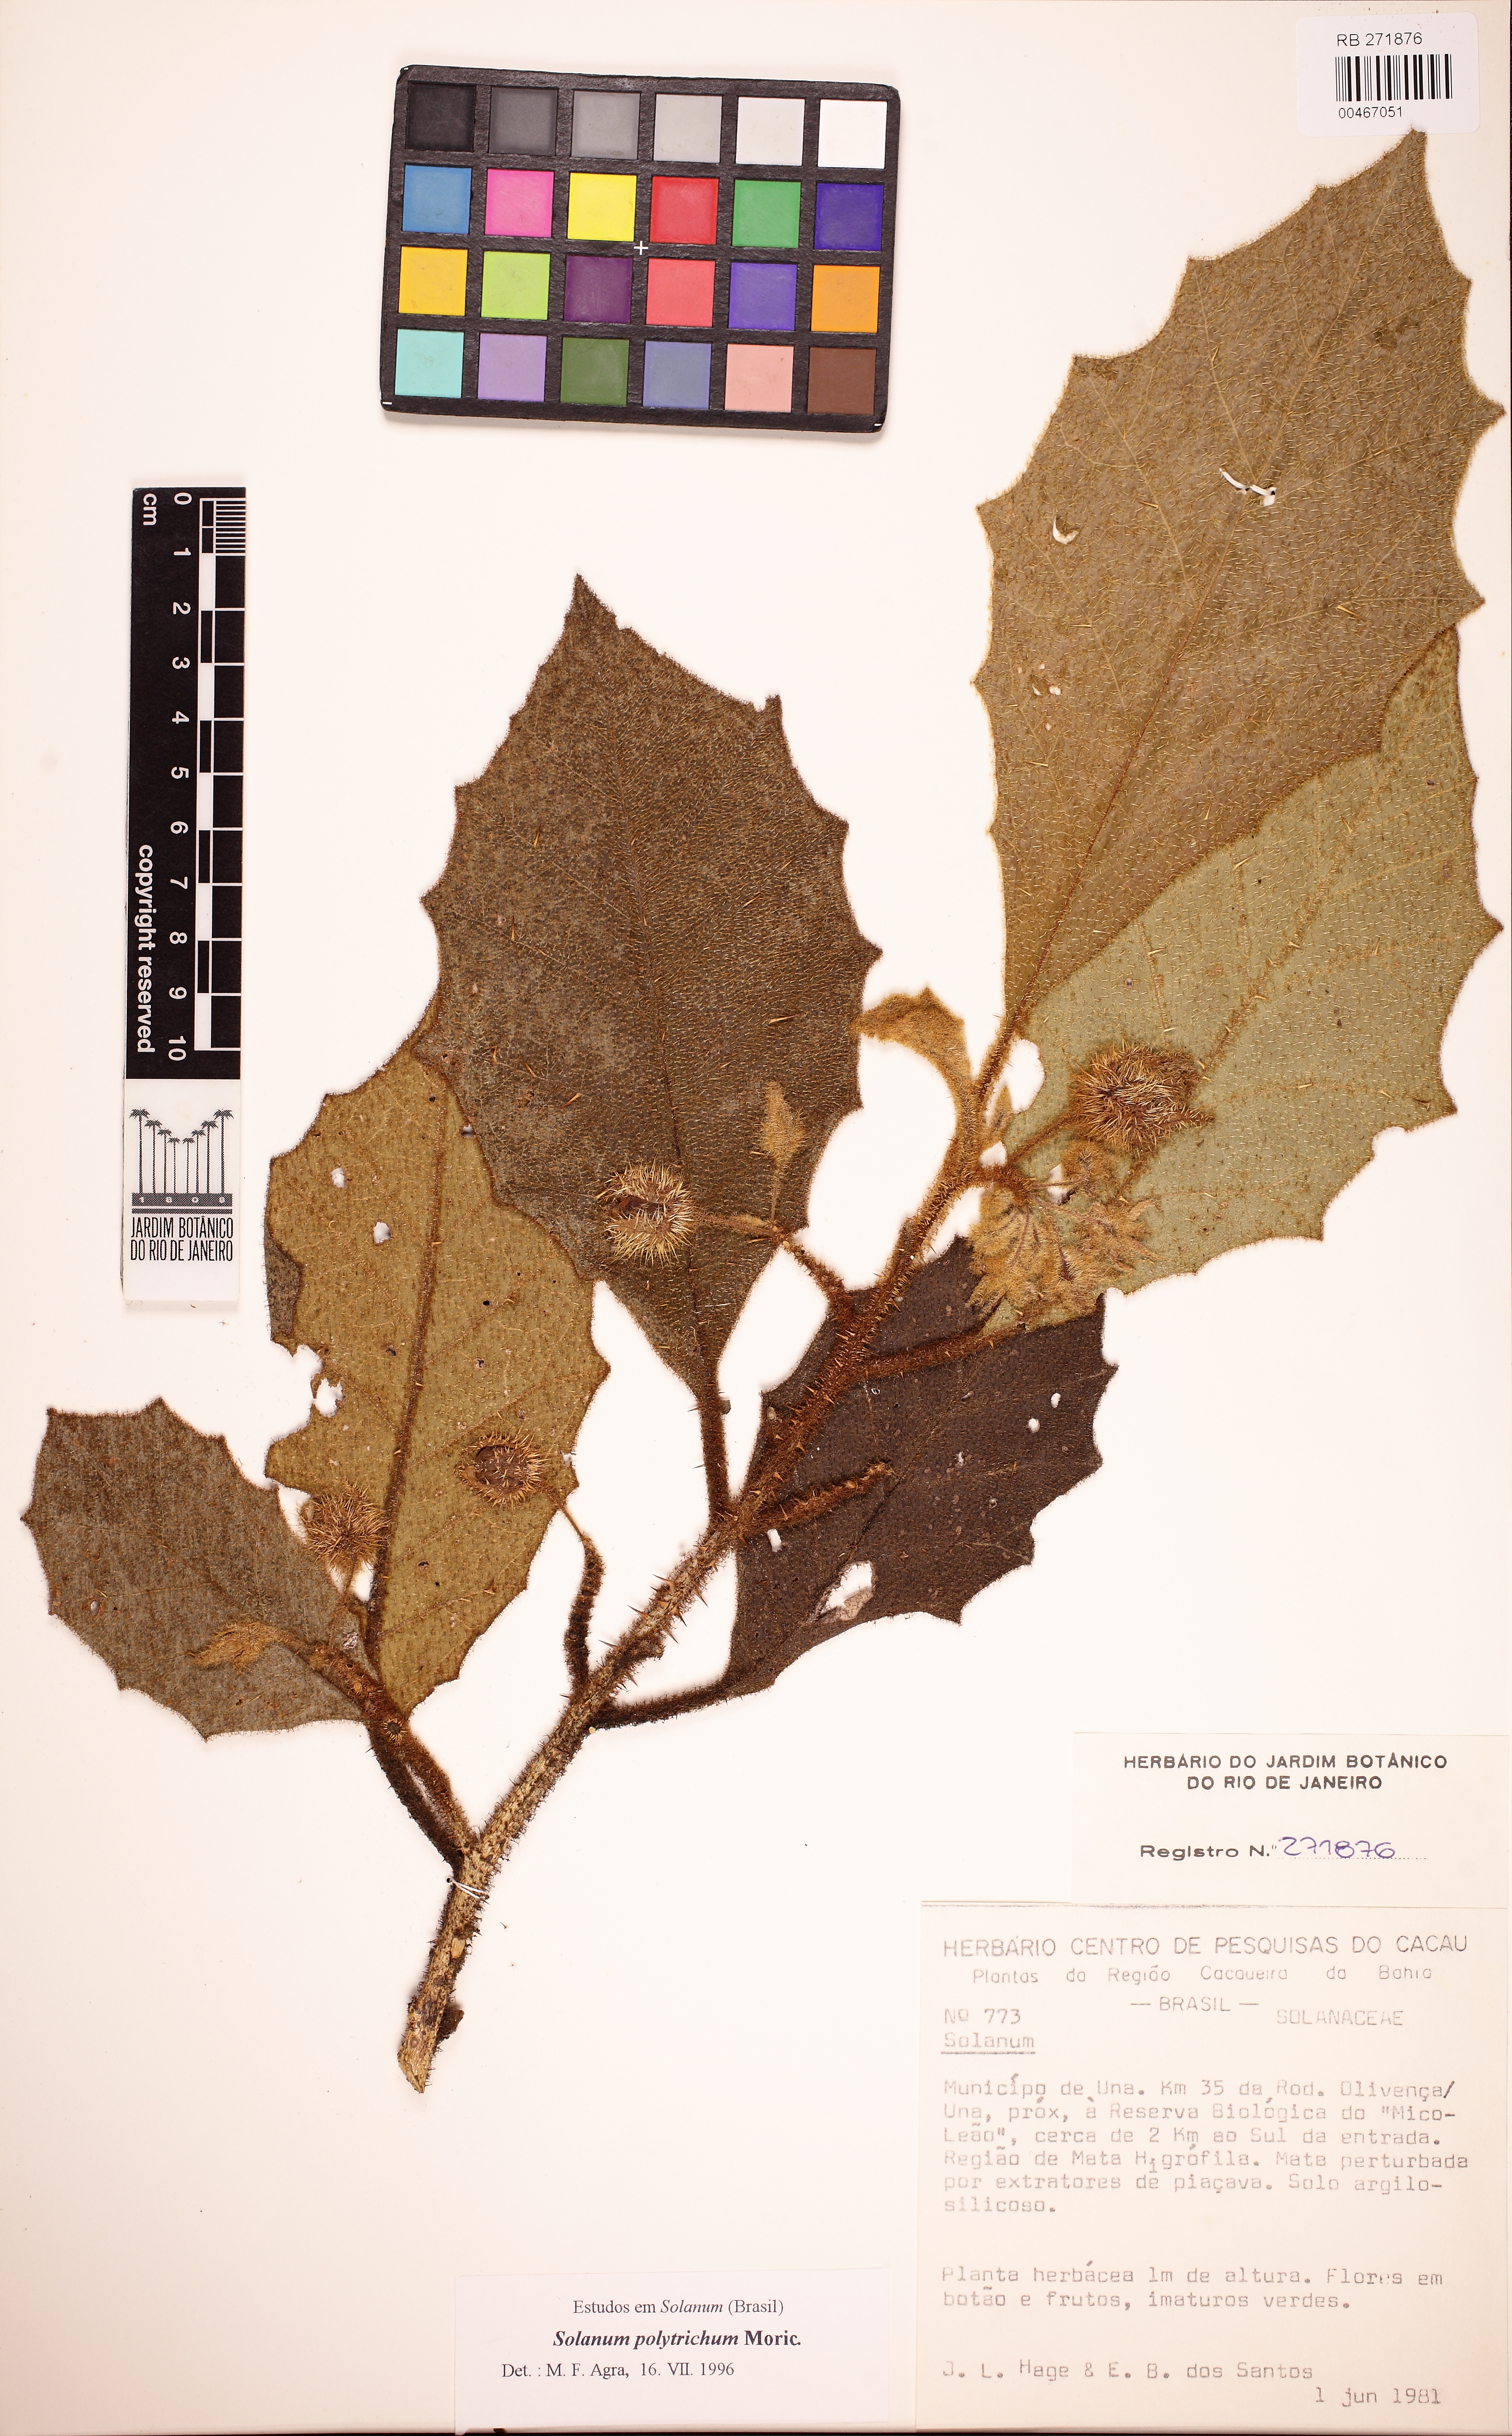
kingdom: Plantae
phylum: Tracheophyta
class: Magnoliopsida
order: Solanales
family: Solanaceae
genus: Solanum
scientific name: Solanum polytrichum
